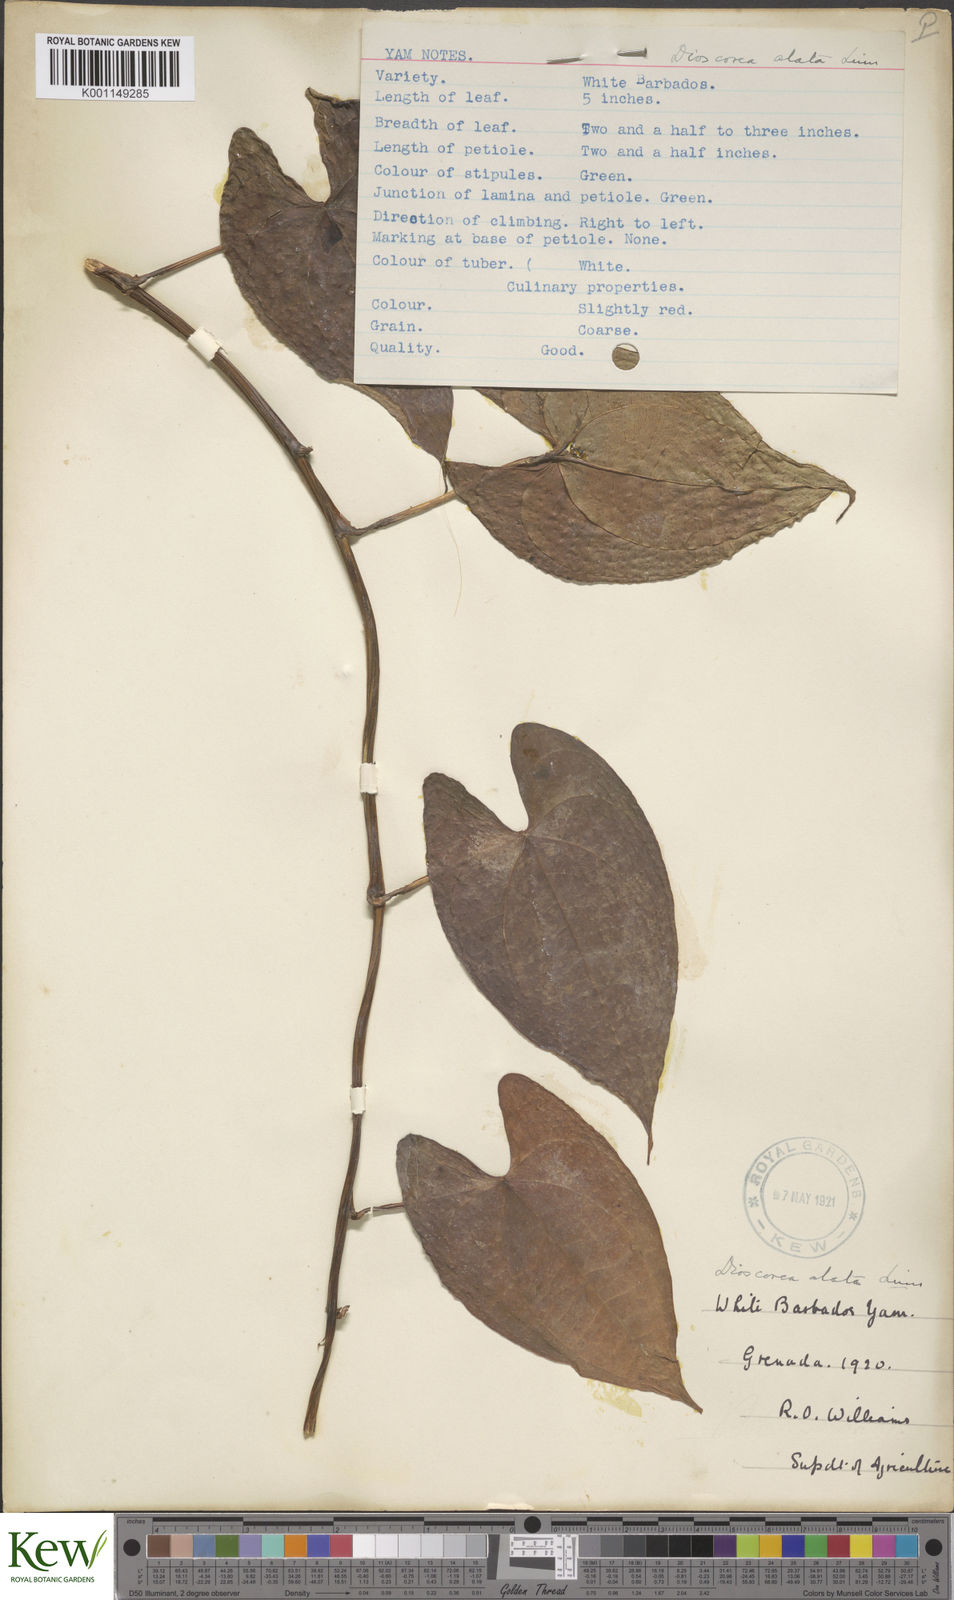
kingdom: Plantae
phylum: Tracheophyta
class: Liliopsida
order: Dioscoreales
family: Dioscoreaceae
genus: Dioscorea
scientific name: Dioscorea alata
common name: Water yam
